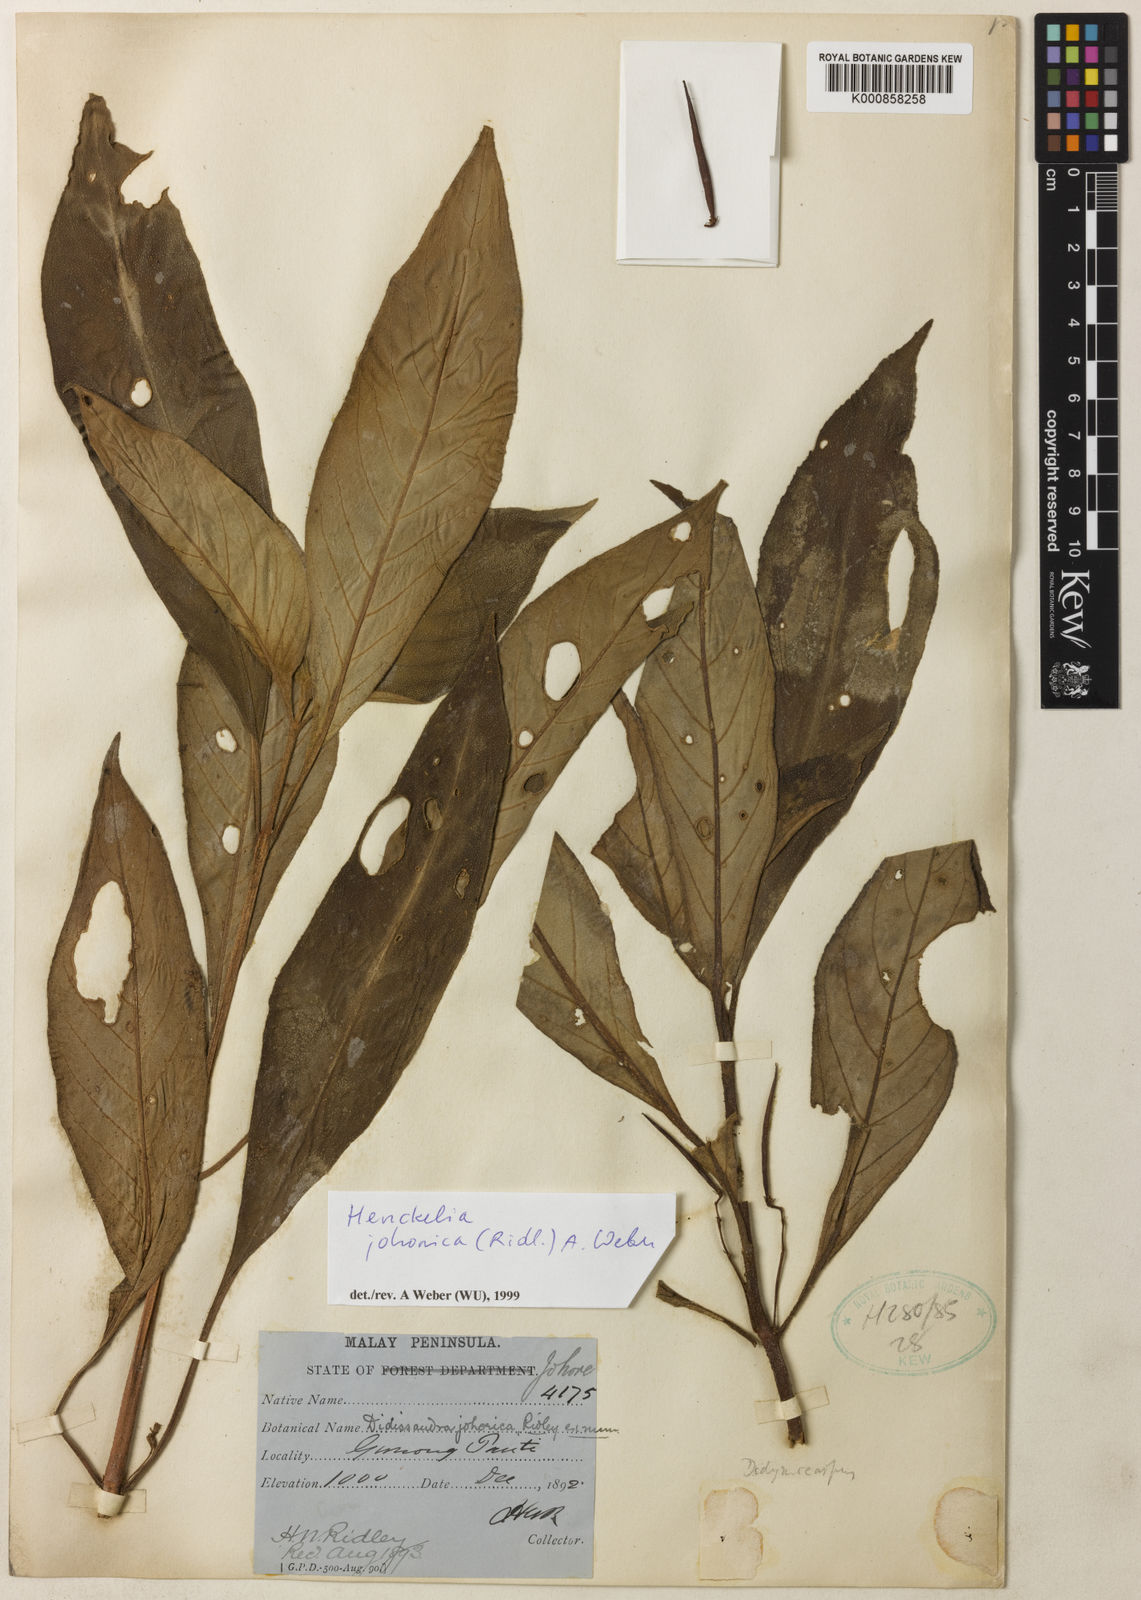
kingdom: Plantae
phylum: Tracheophyta
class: Magnoliopsida
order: Lamiales
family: Gesneriaceae
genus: Codonoboea
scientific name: Codonoboea johorica
